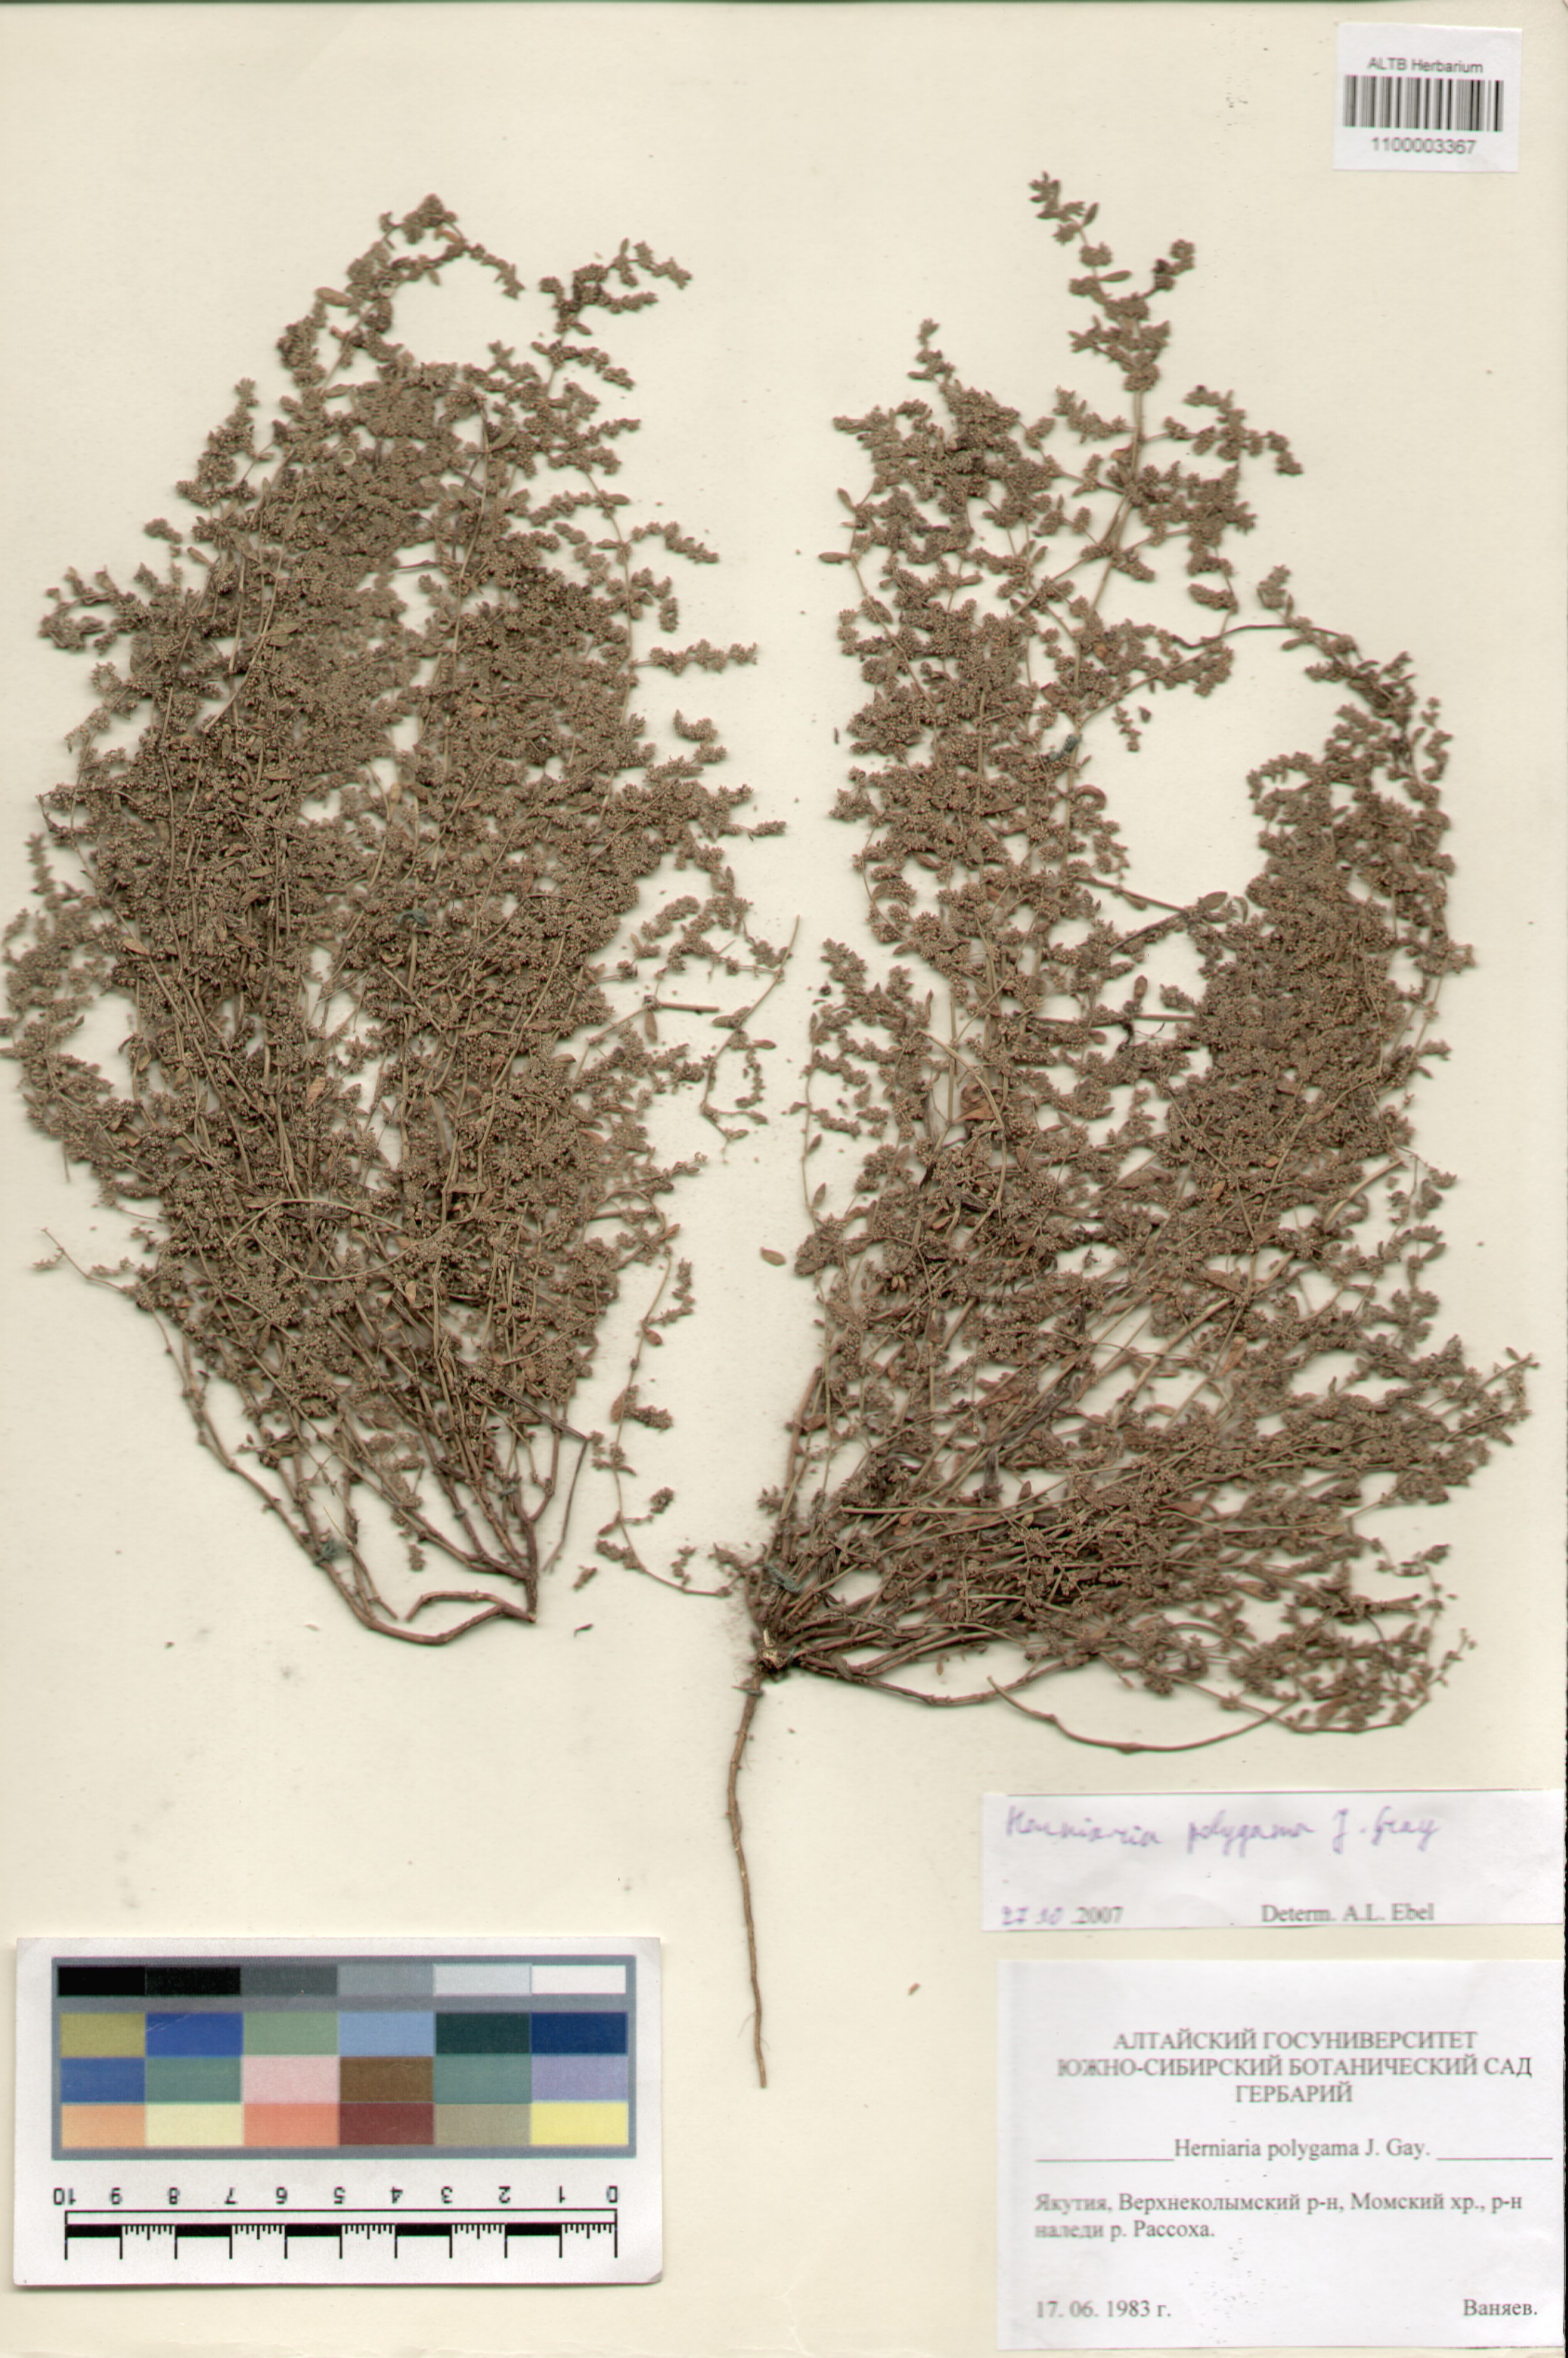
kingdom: Plantae
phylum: Tracheophyta
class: Magnoliopsida
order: Caryophyllales
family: Caryophyllaceae
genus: Herniaria
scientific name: Herniaria polygama
